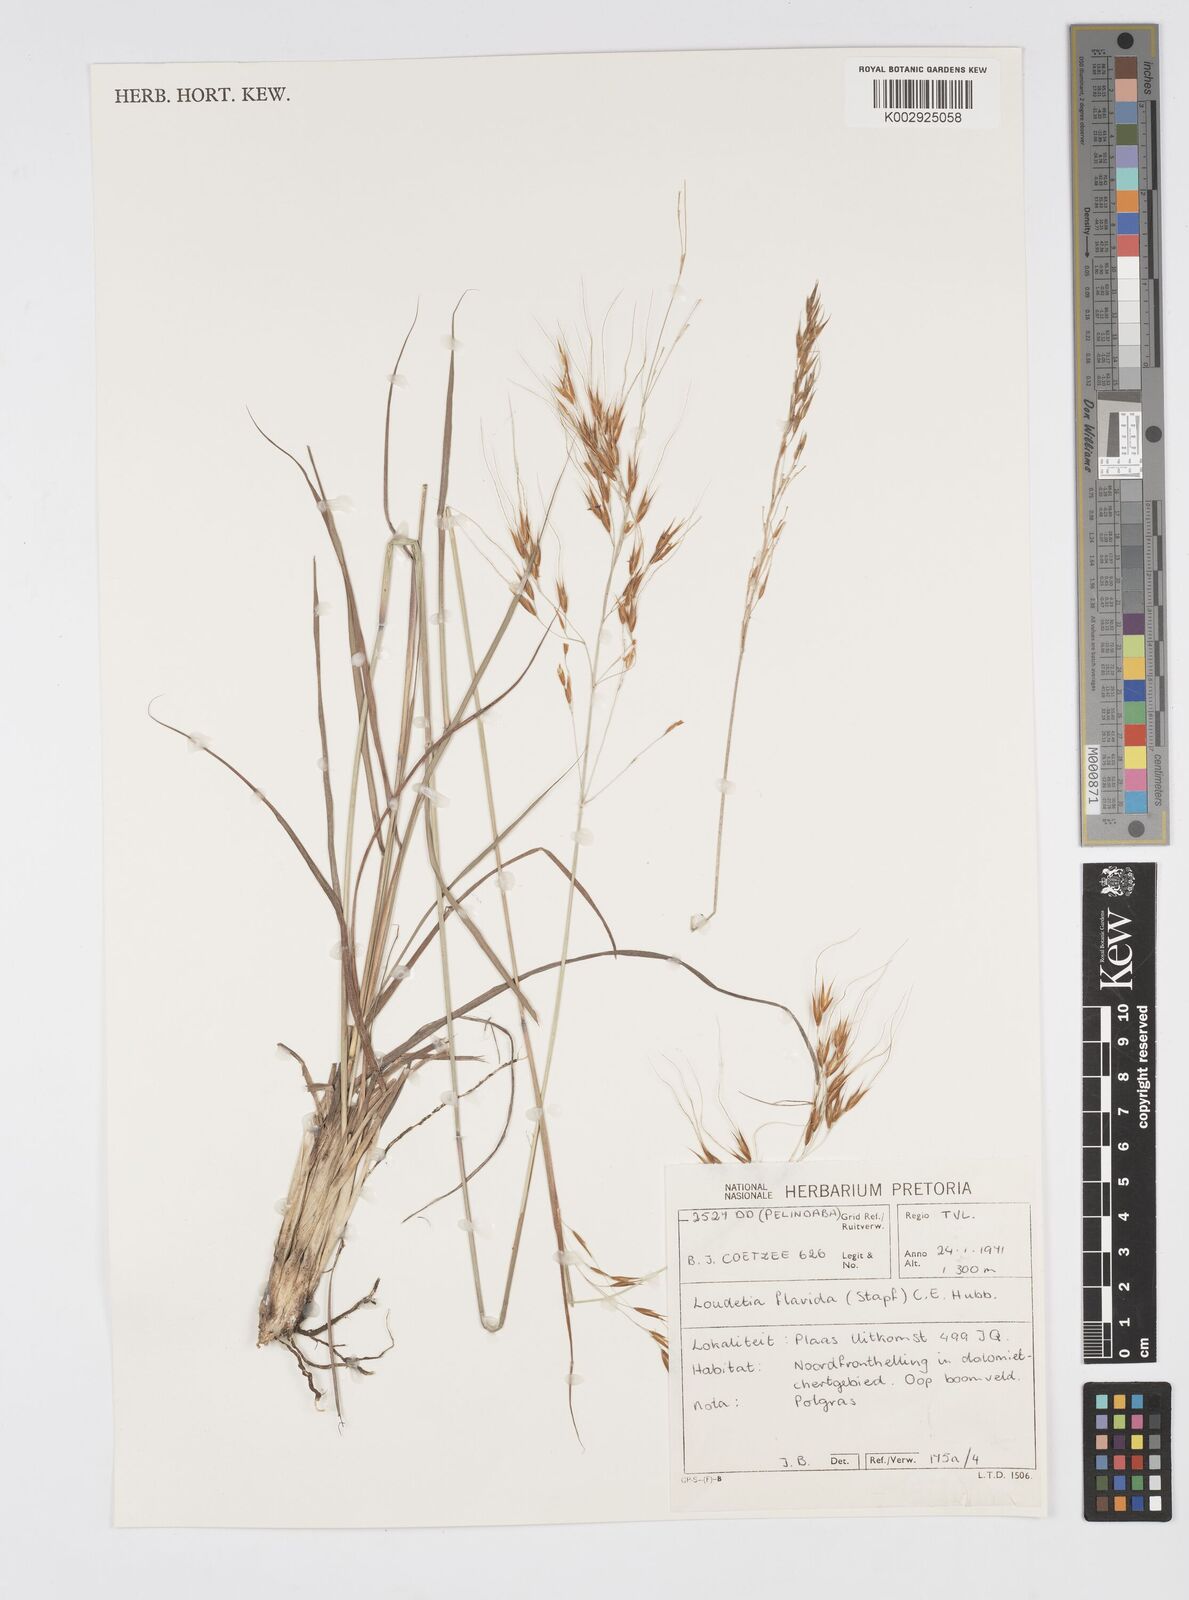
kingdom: Plantae
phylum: Tracheophyta
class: Liliopsida
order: Poales
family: Poaceae
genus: Loudetia
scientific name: Loudetia flavida
